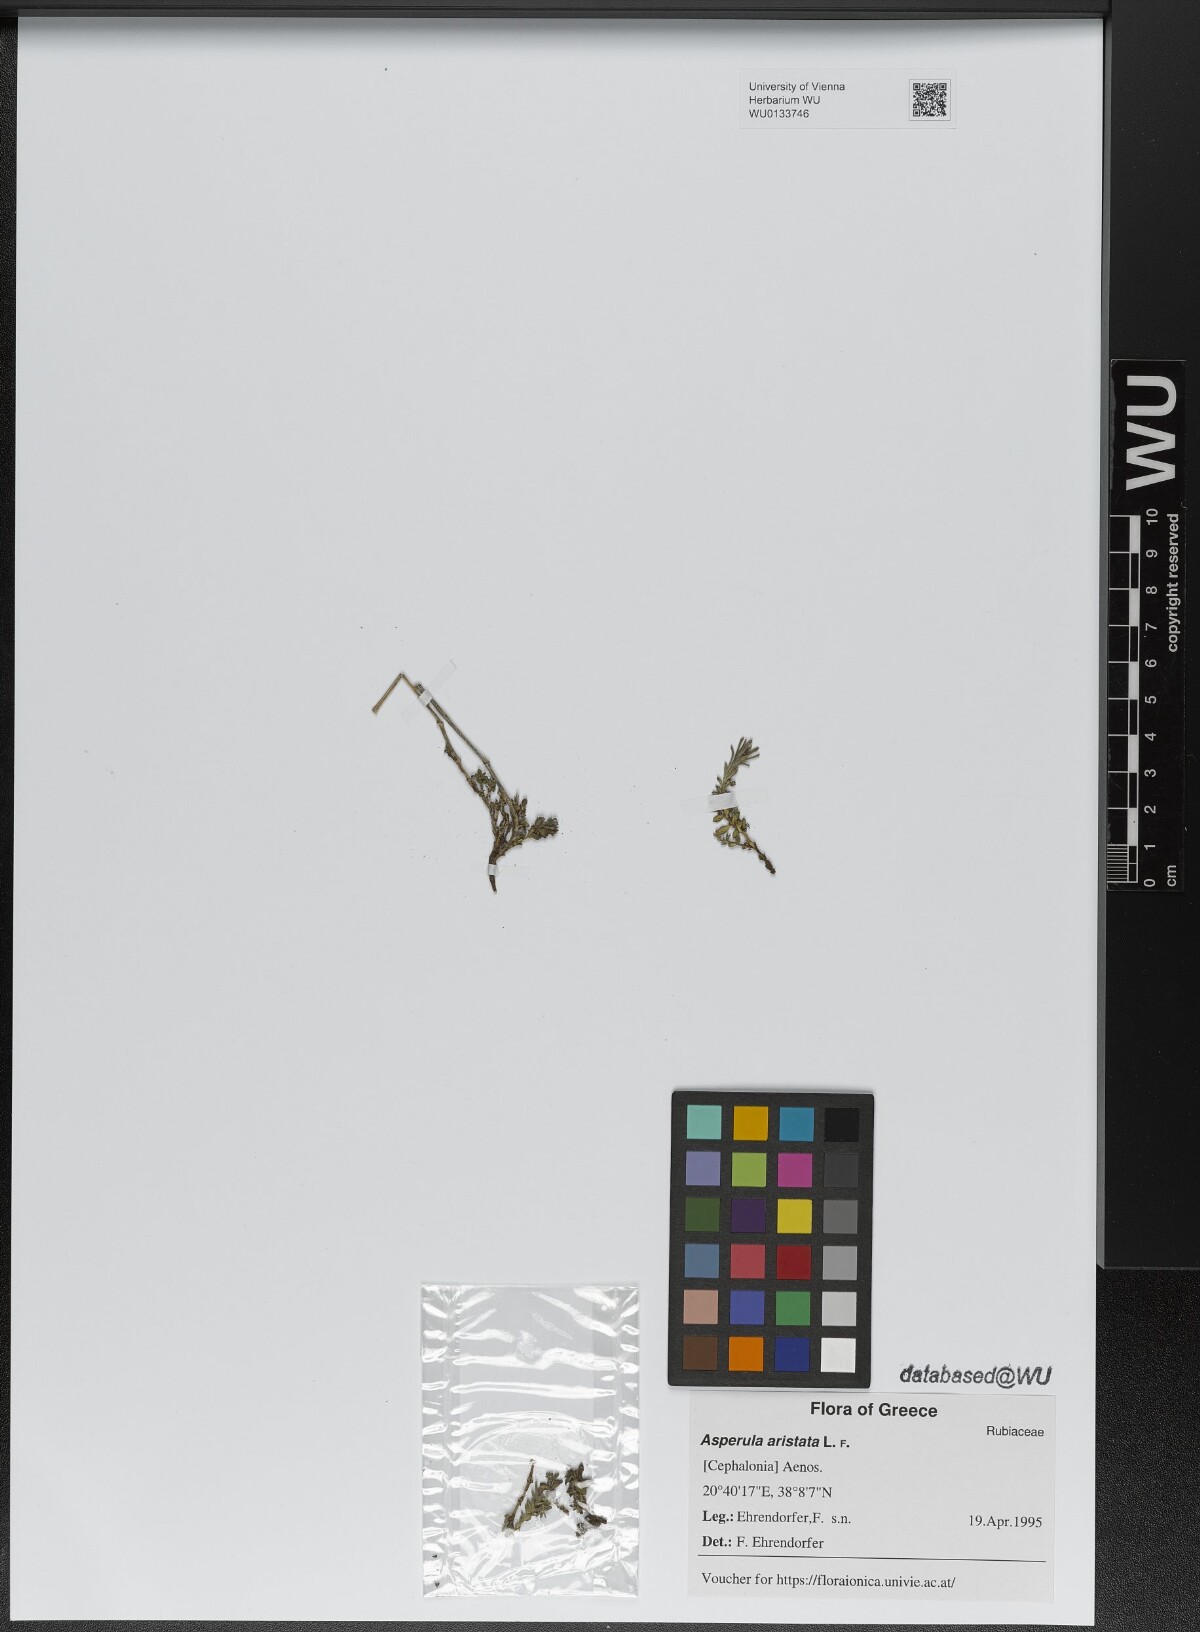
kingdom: Plantae
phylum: Tracheophyta
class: Magnoliopsida
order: Gentianales
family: Rubiaceae
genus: Cynanchica
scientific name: Cynanchica aristata
